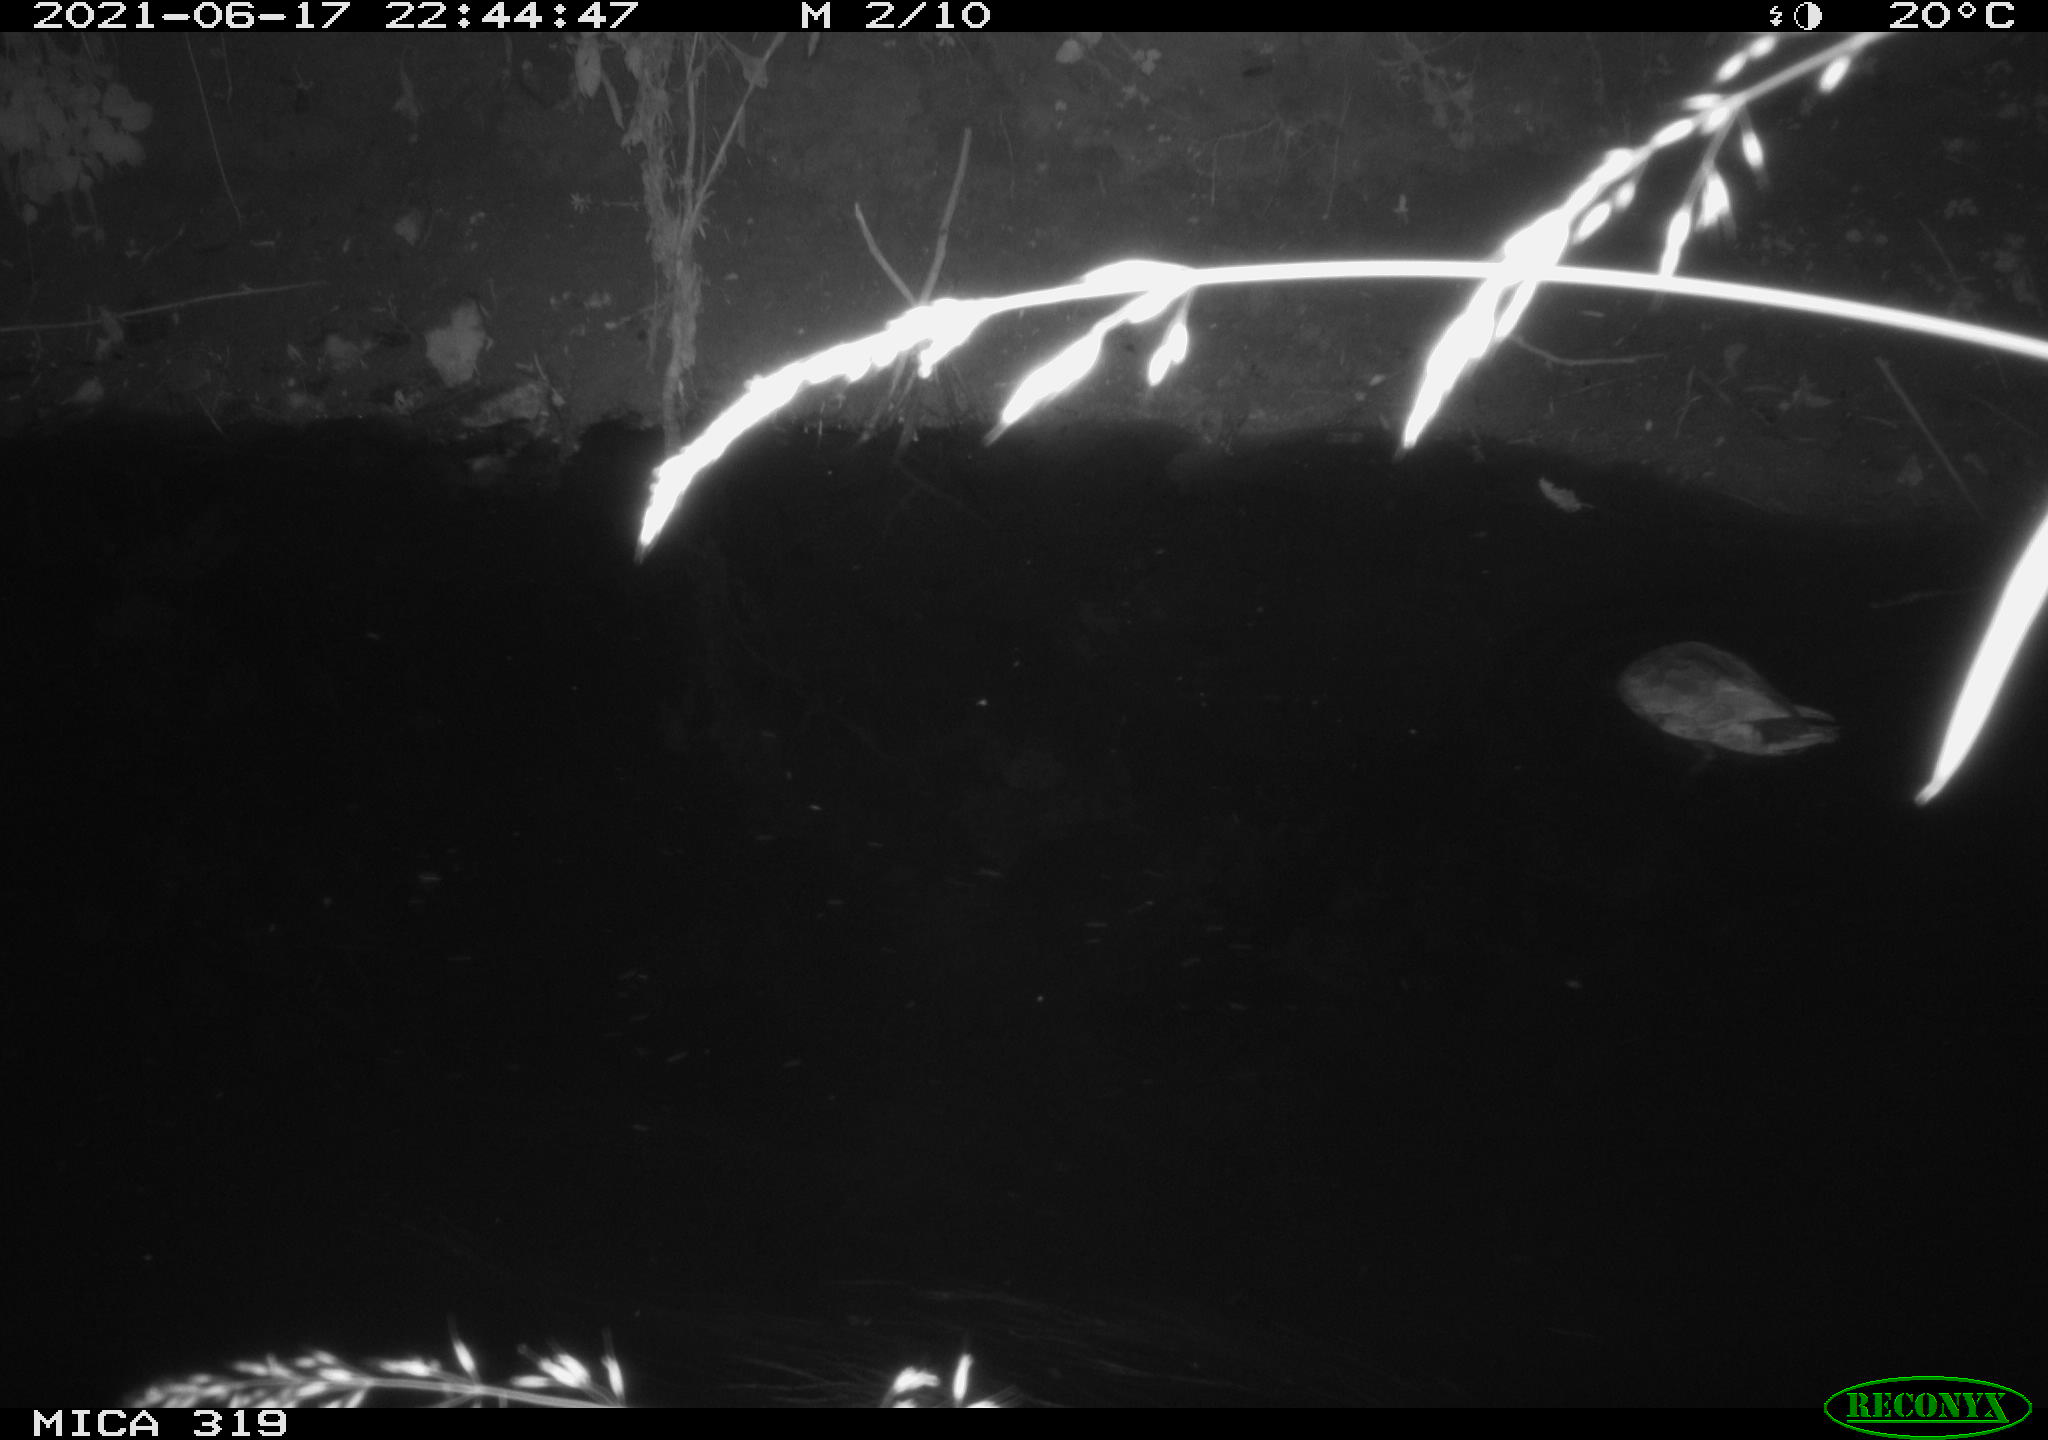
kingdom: Animalia
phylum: Chordata
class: Aves
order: Anseriformes
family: Anatidae
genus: Anas
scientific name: Anas platyrhynchos
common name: Mallard
